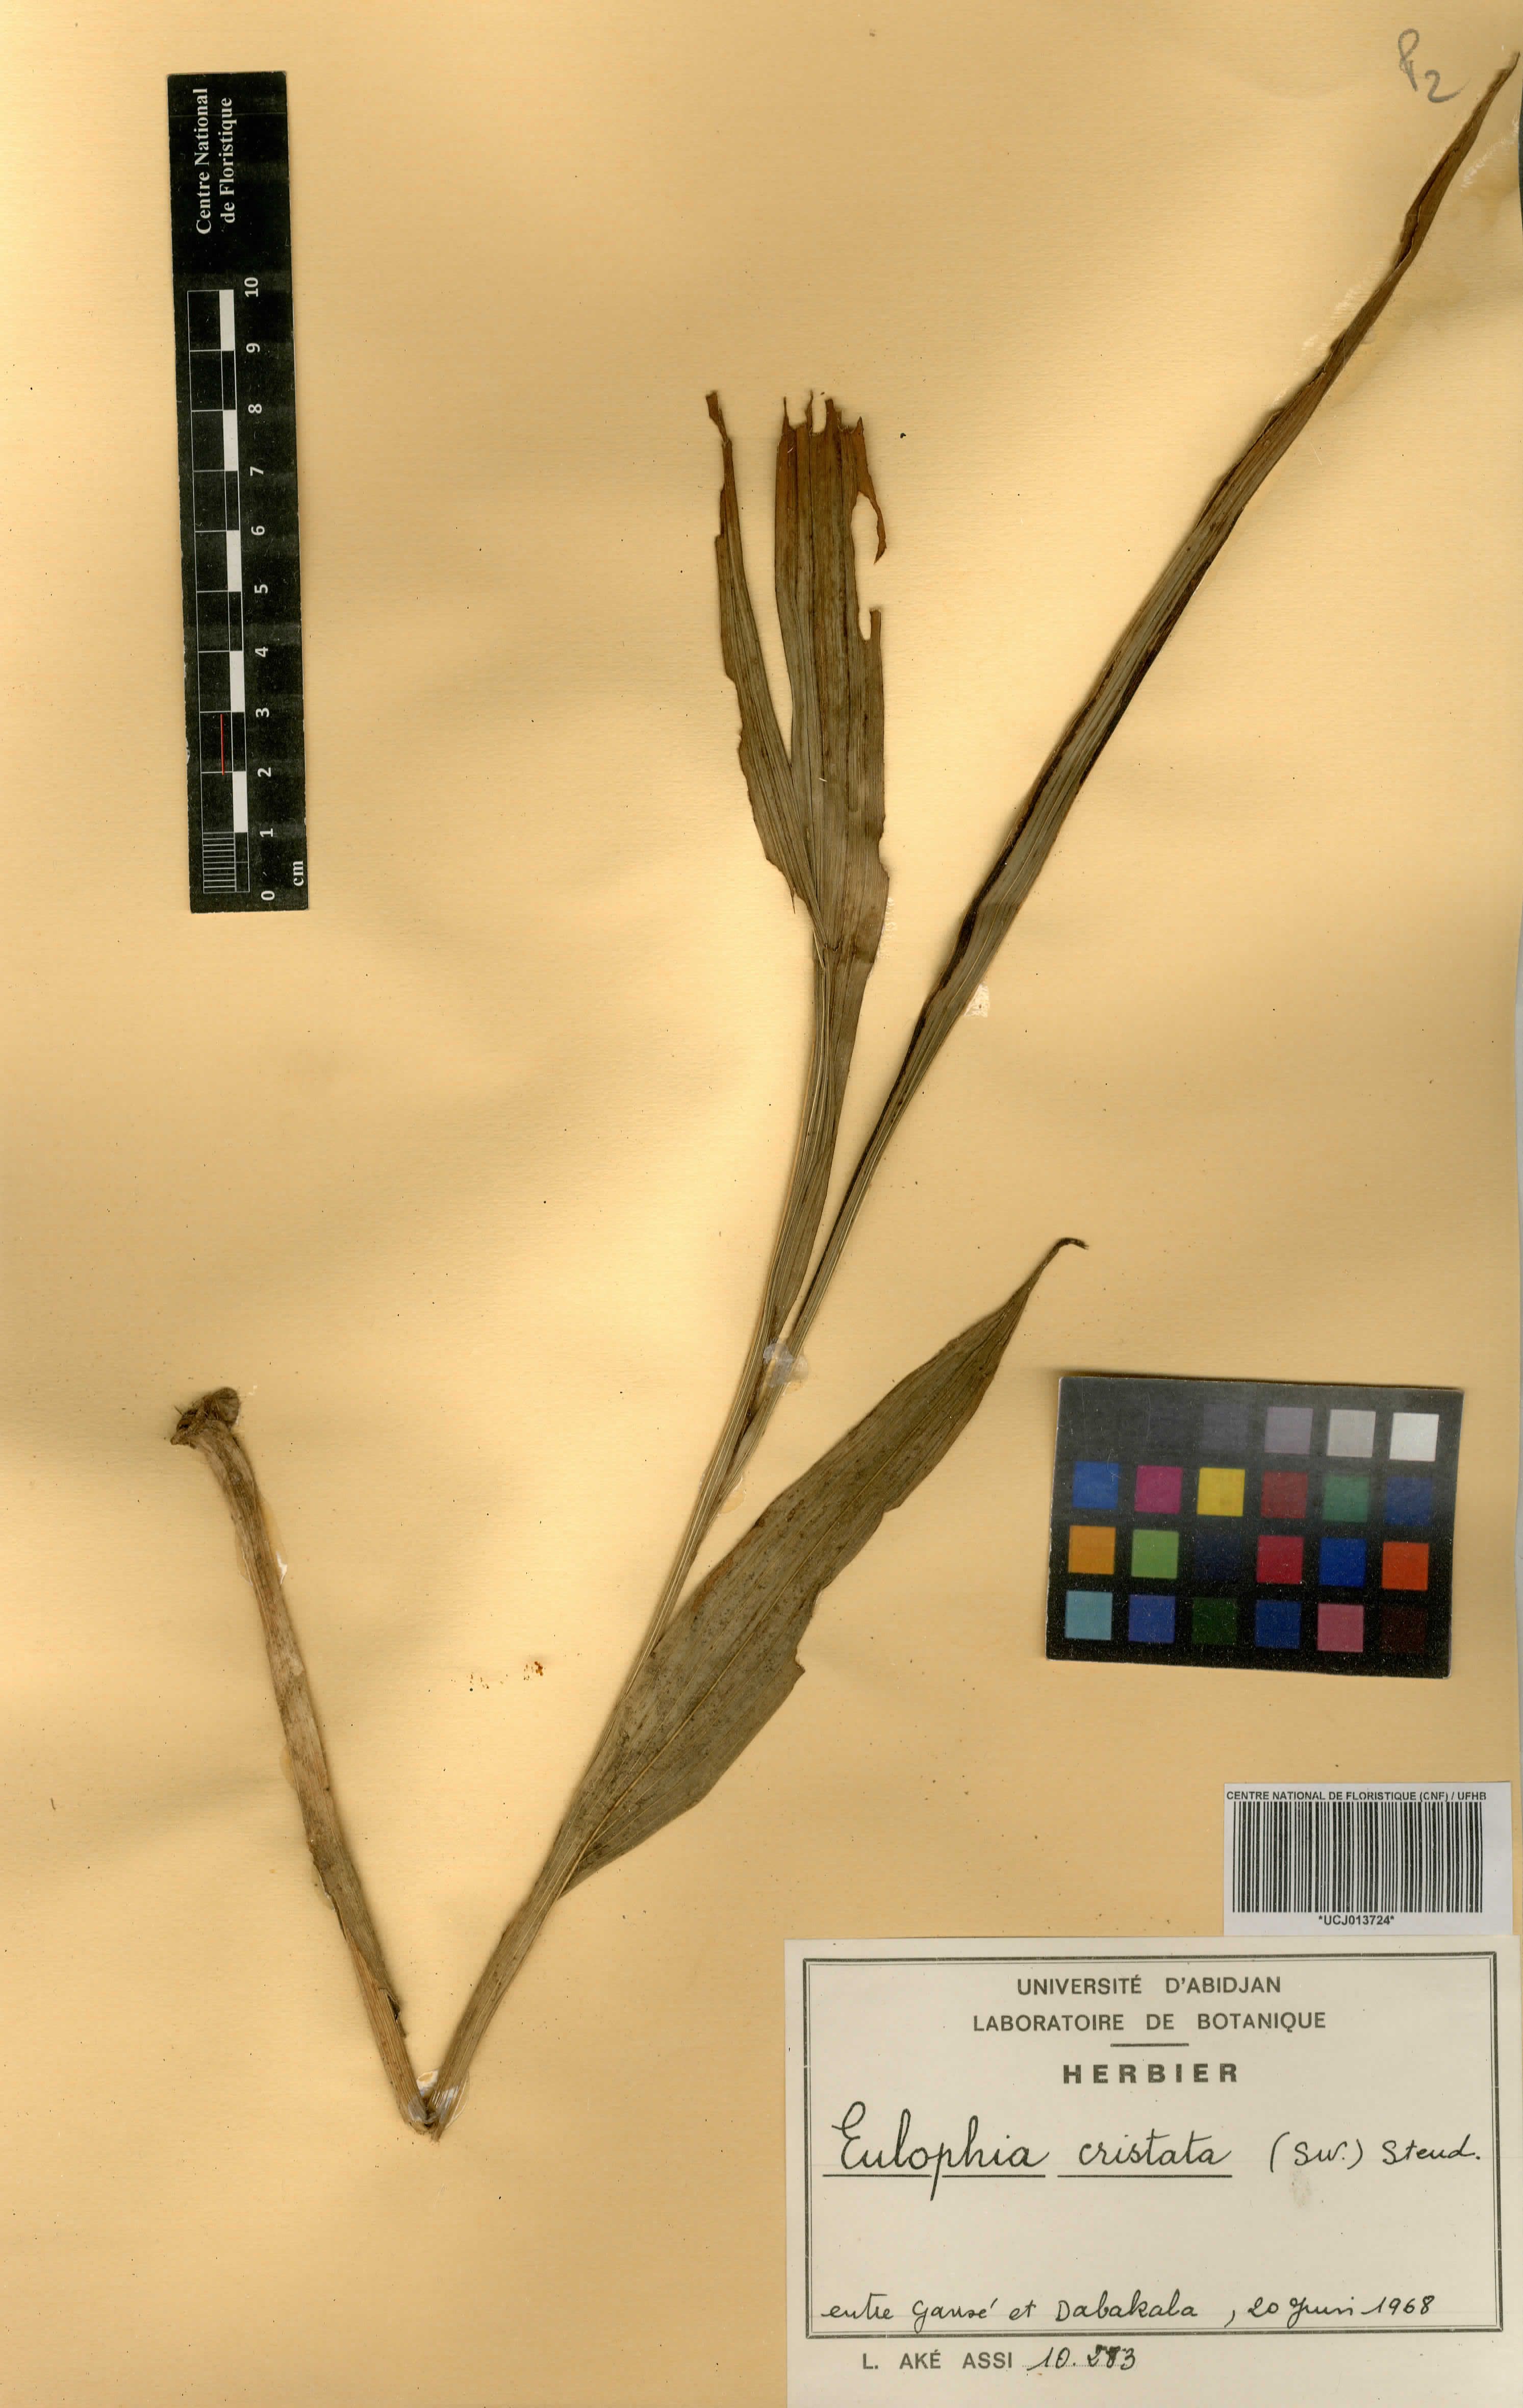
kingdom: Plantae
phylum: Tracheophyta
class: Liliopsida
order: Asparagales
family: Orchidaceae
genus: Eulophia
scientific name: Eulophia cristata
